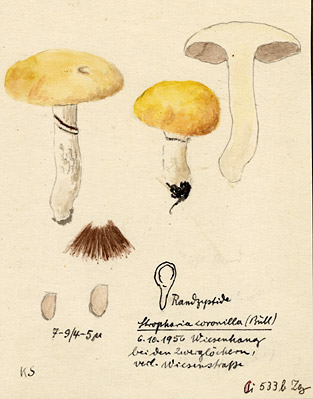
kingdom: Fungi
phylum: Basidiomycota
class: Agaricomycetes
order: Agaricales
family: Hymenogastraceae
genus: Psilocybe
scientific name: Psilocybe coronilla
